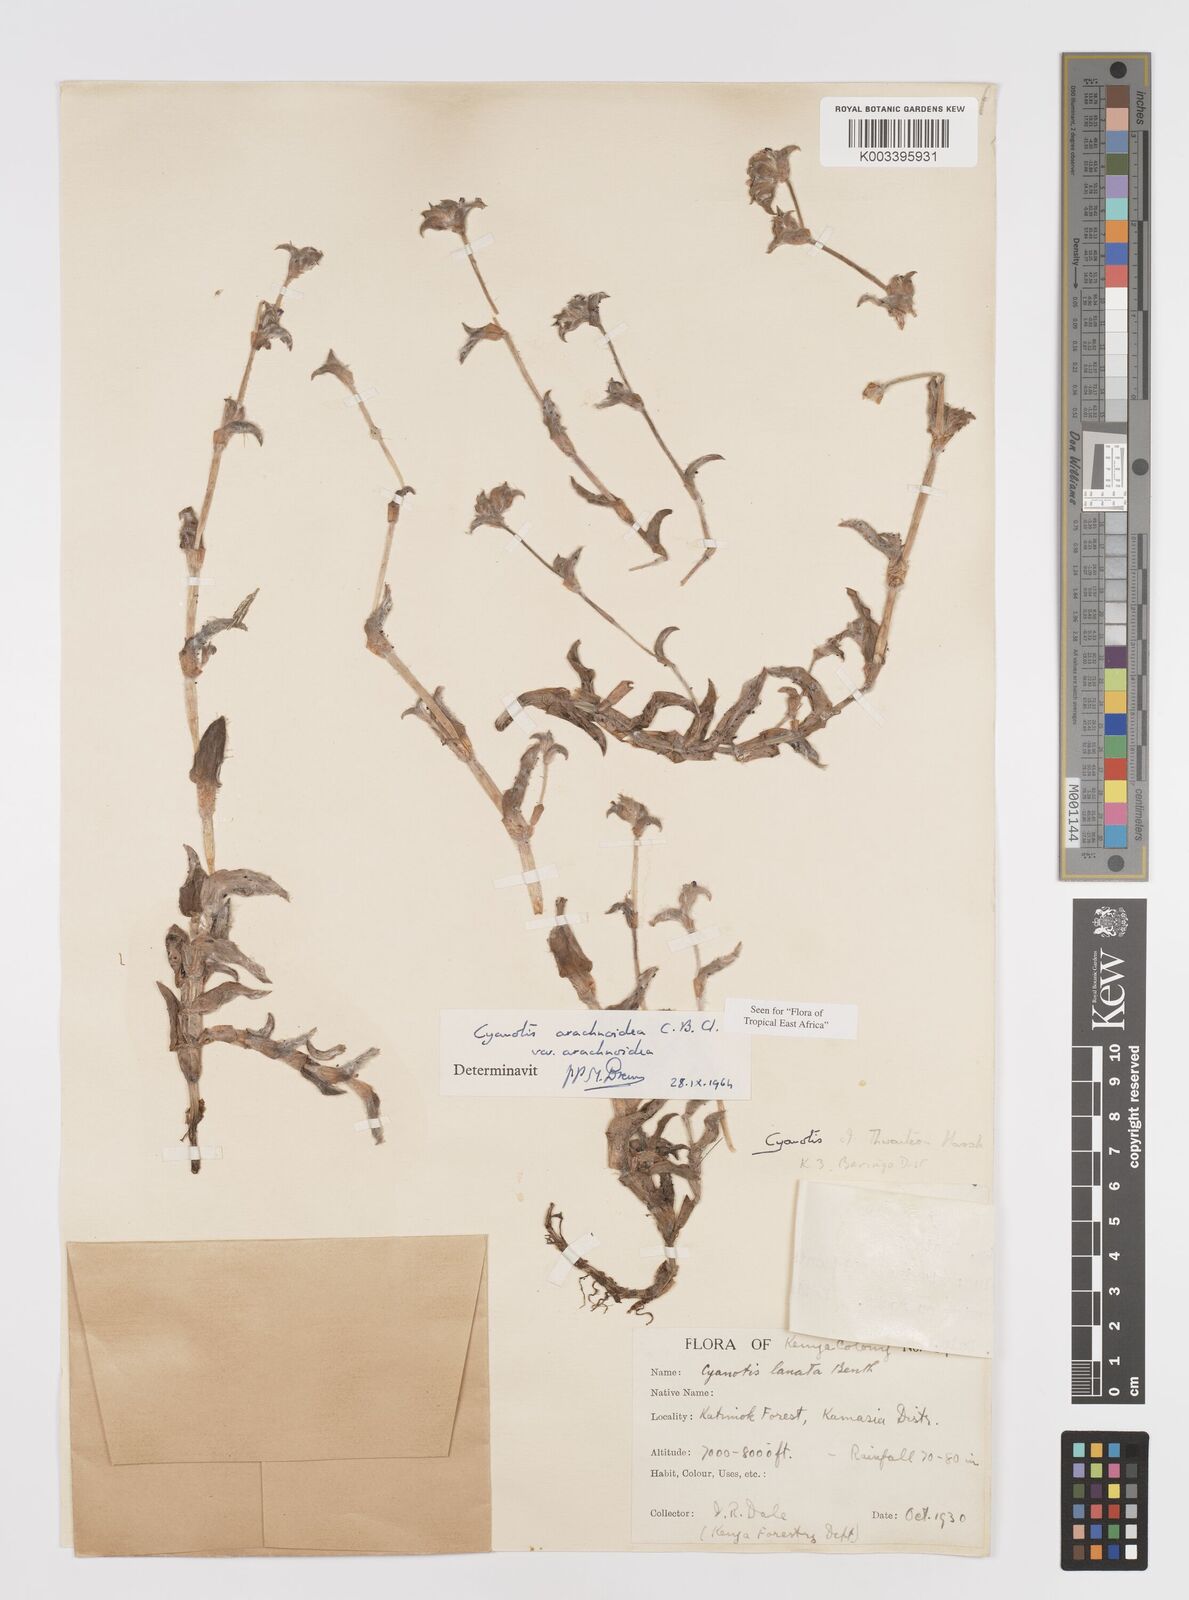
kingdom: Plantae
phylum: Tracheophyta
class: Liliopsida
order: Commelinales
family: Commelinaceae
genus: Cyanotis
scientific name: Cyanotis arachnoidea
